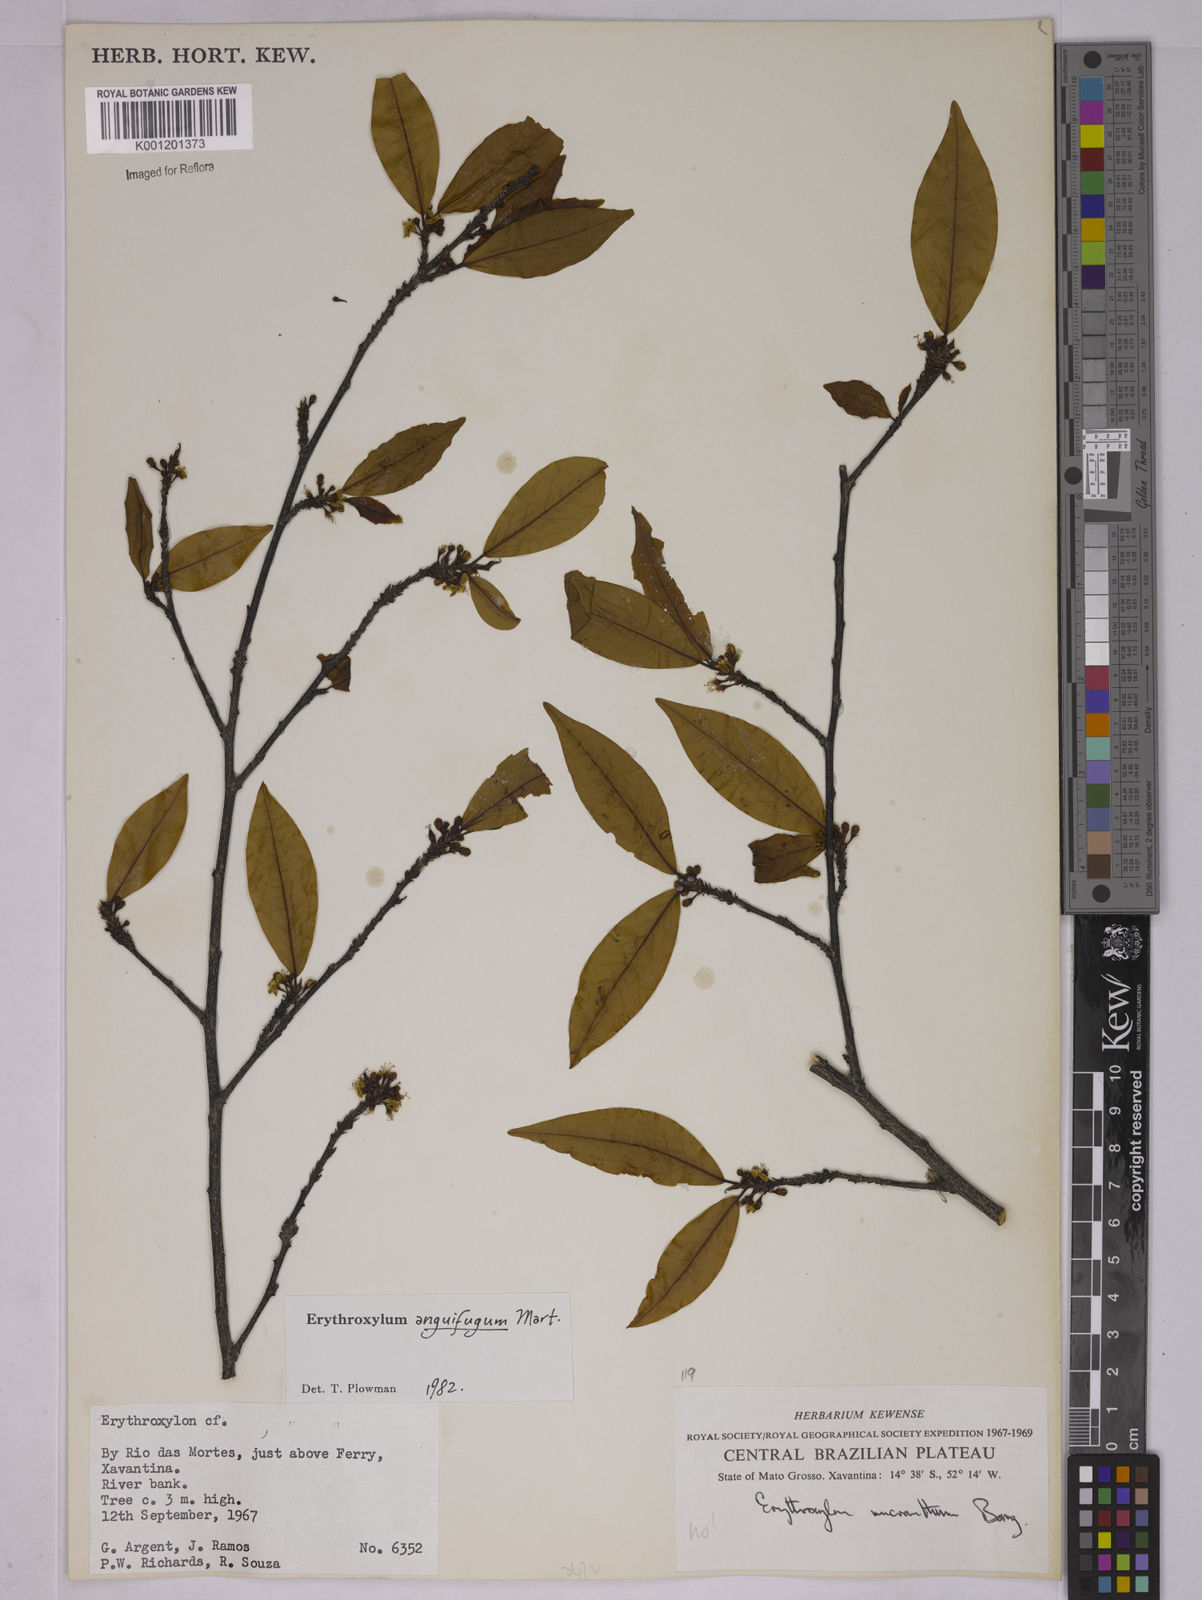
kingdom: Plantae
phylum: Tracheophyta
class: Magnoliopsida
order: Malpighiales
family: Erythroxylaceae
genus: Erythroxylum
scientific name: Erythroxylum anguifugum
